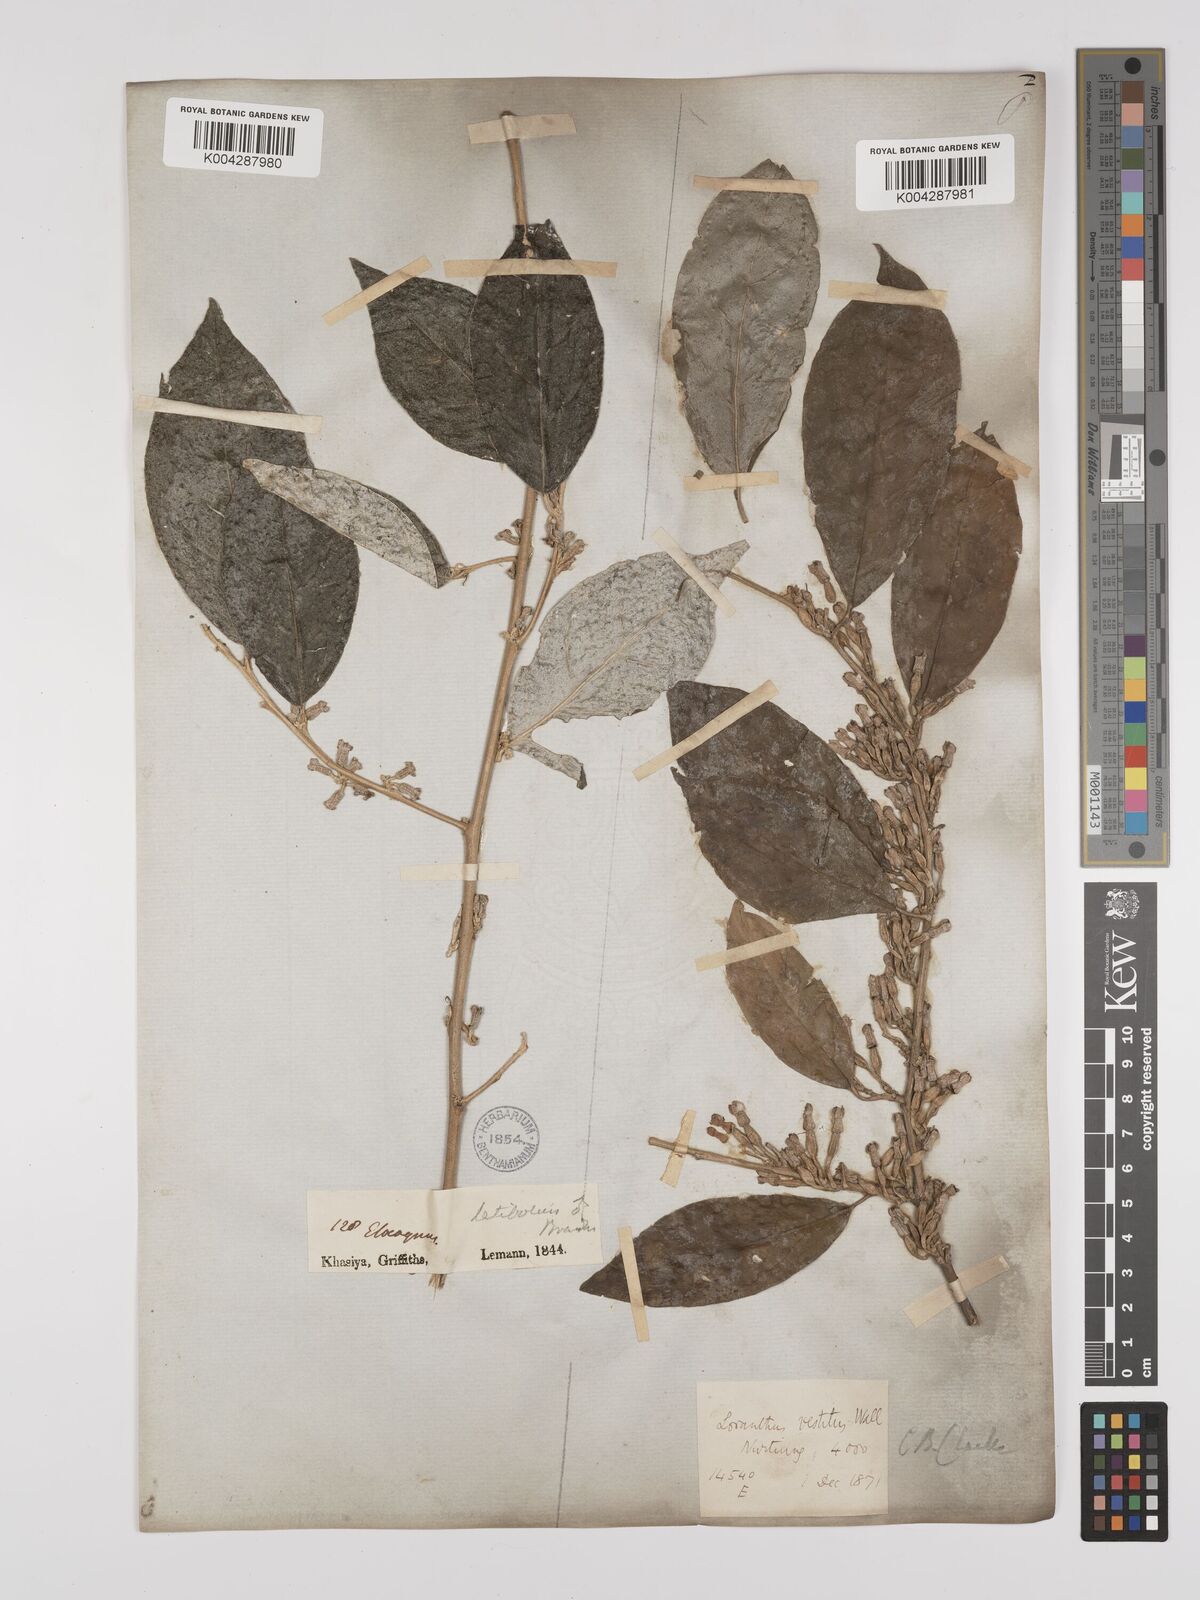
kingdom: Plantae
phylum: Tracheophyta
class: Magnoliopsida
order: Rosales
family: Elaeagnaceae
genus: Elaeagnus
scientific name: Elaeagnus latifolia
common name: Oleaster
